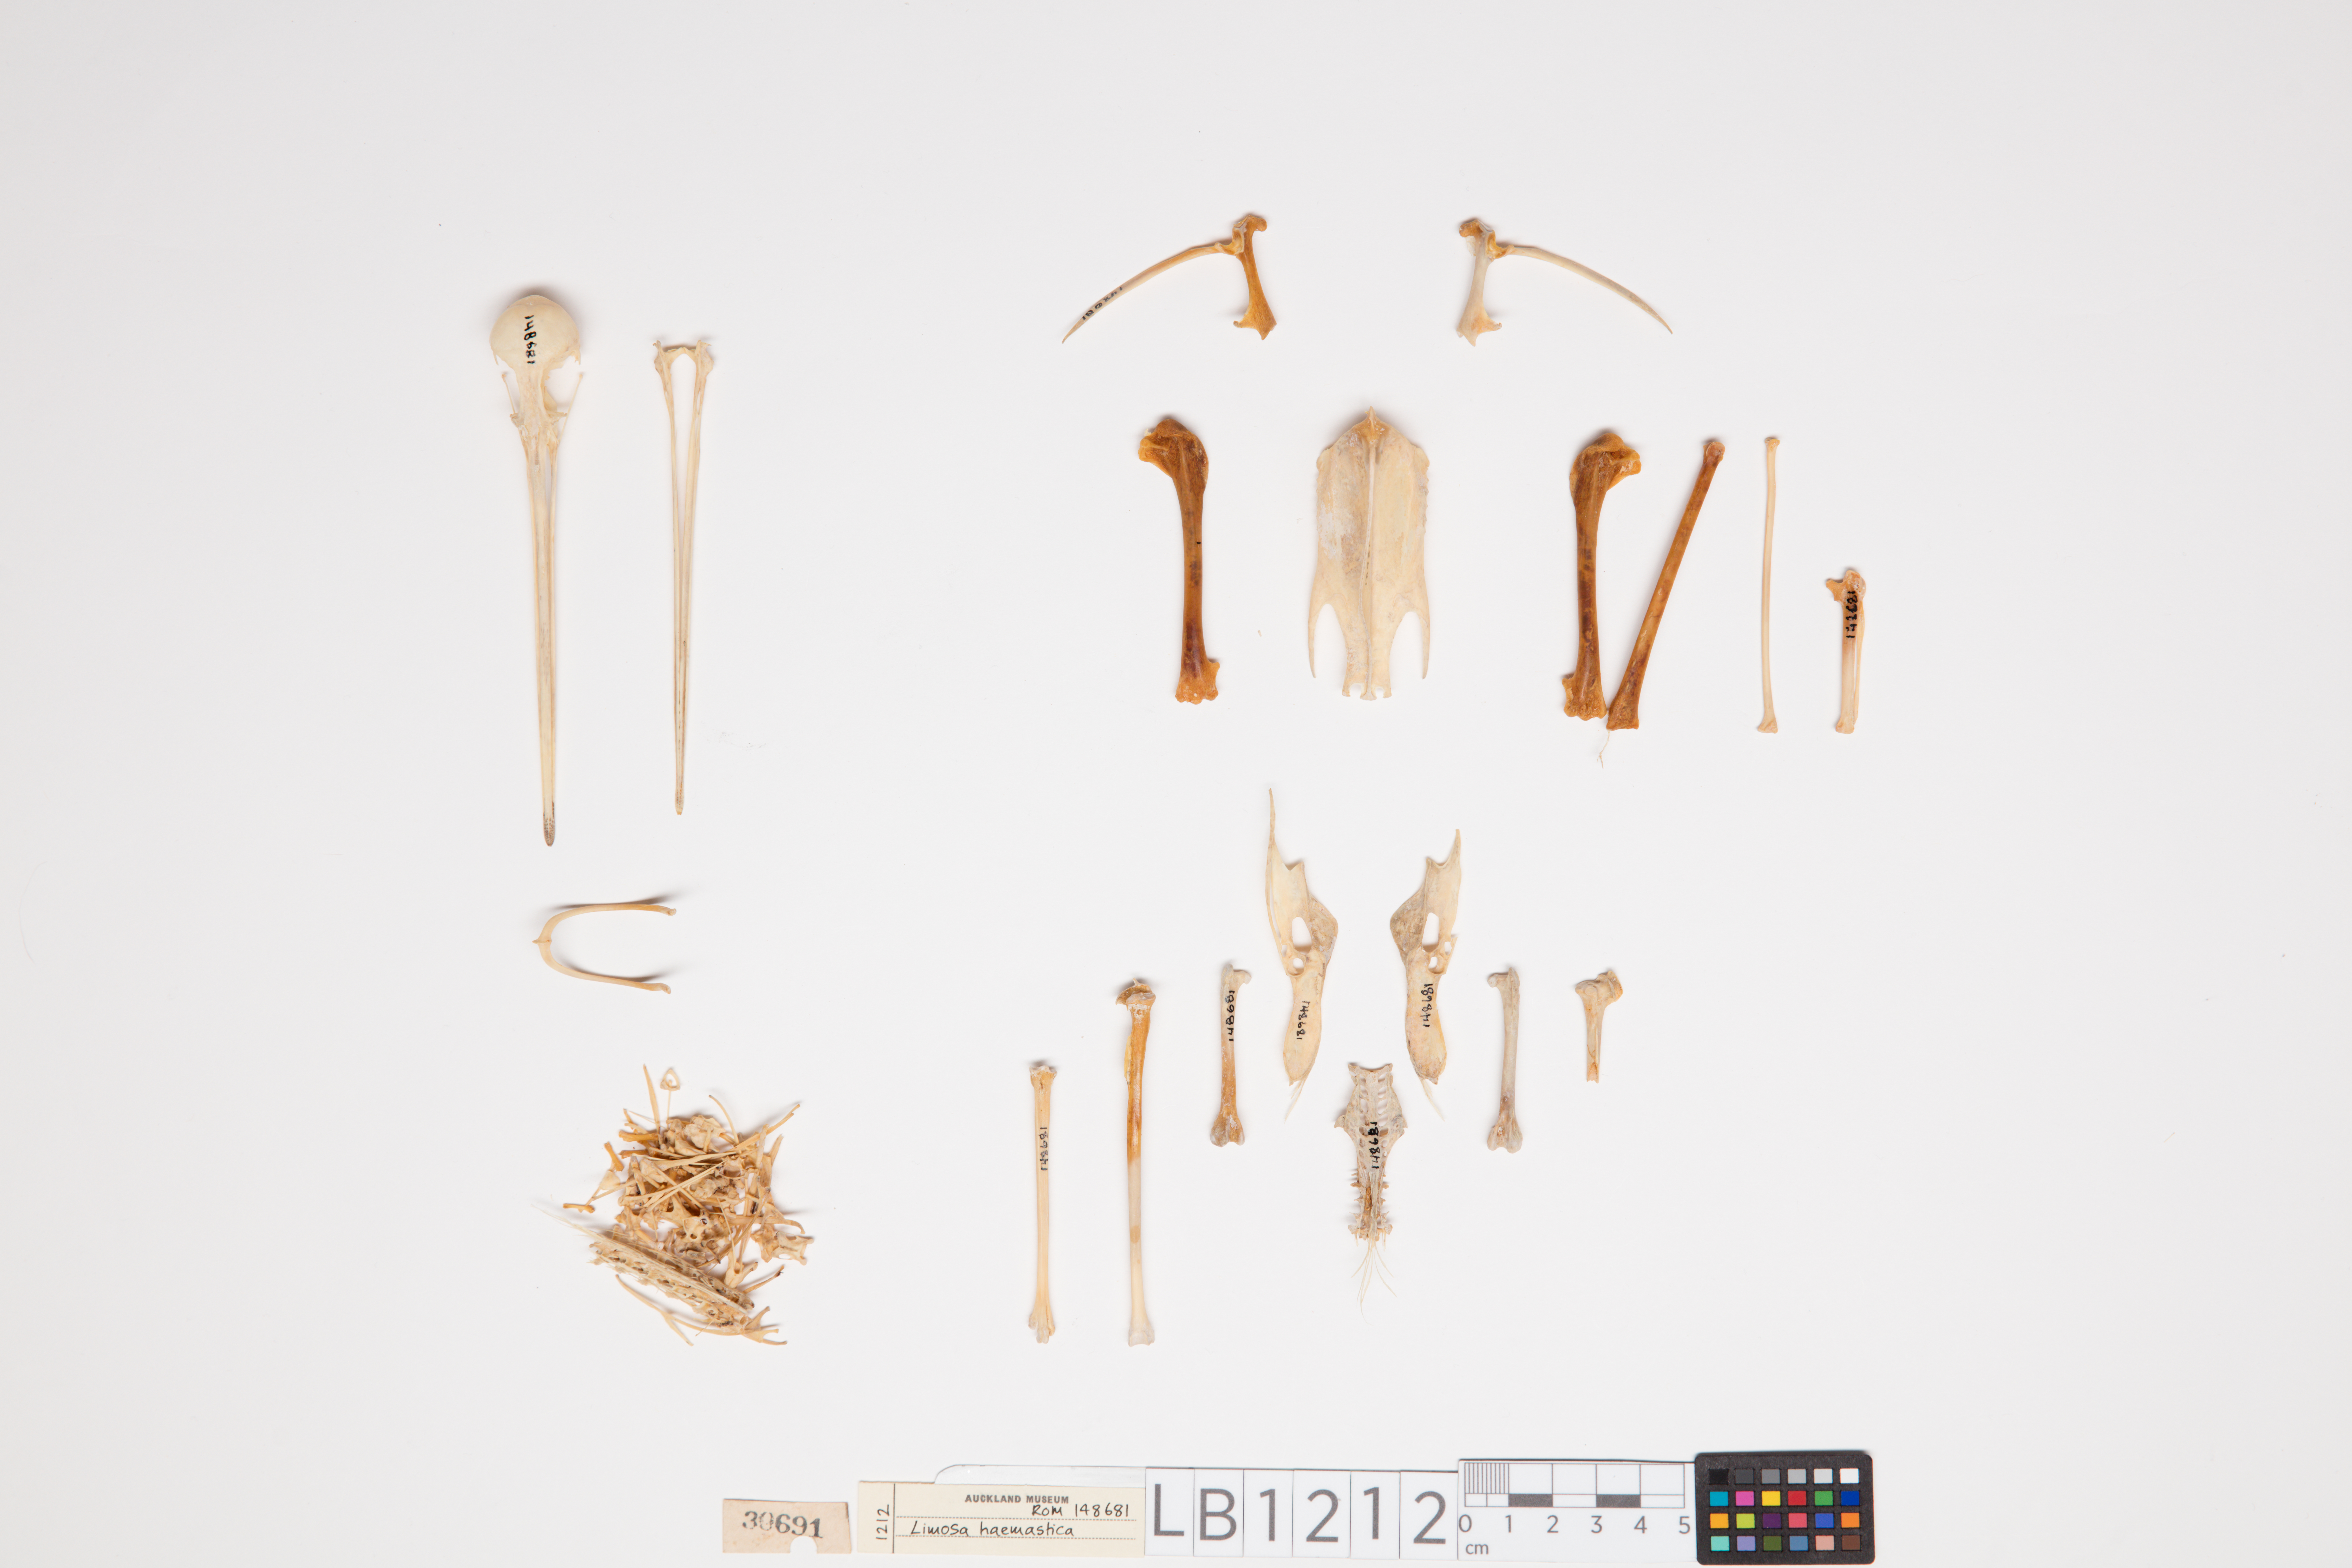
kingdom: Animalia
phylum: Chordata
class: Aves
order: Charadriiformes
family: Scolopacidae
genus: Limosa
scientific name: Limosa haemastica
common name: Hudsonian godwit
